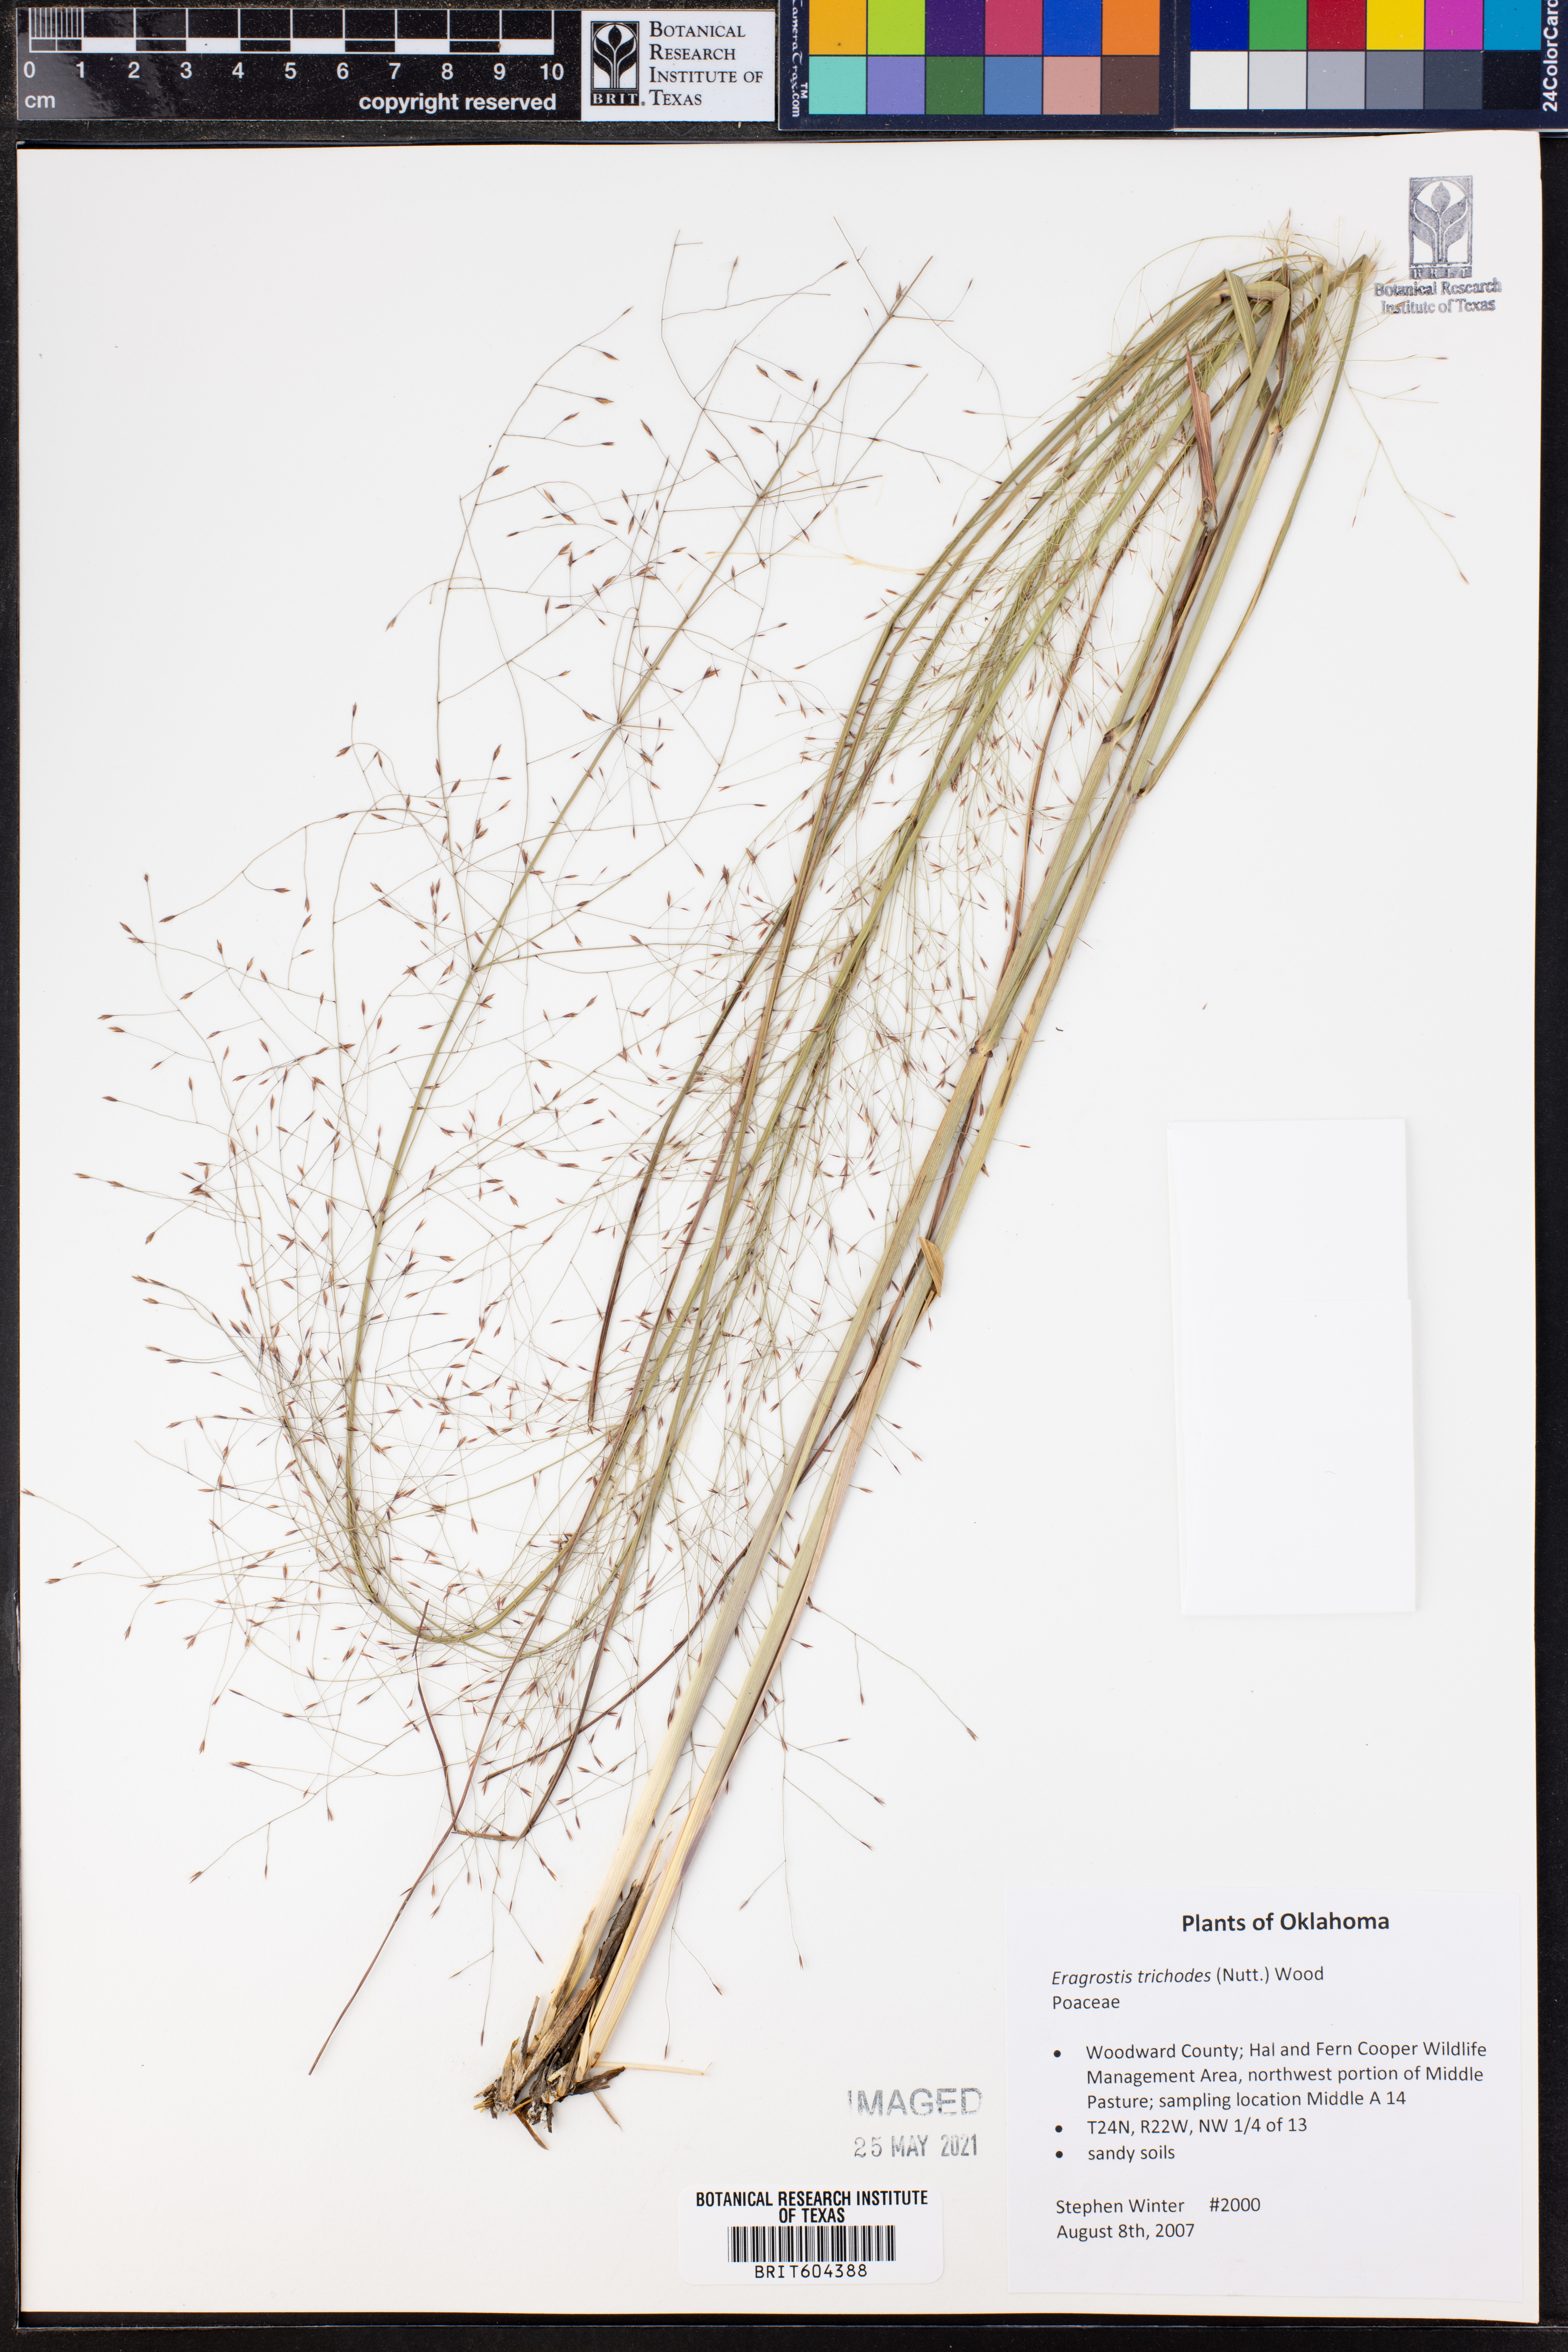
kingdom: Plantae
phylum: Tracheophyta
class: Liliopsida
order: Poales
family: Poaceae
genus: Eragrostis
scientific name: Eragrostis trichodes
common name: Sand love grass
